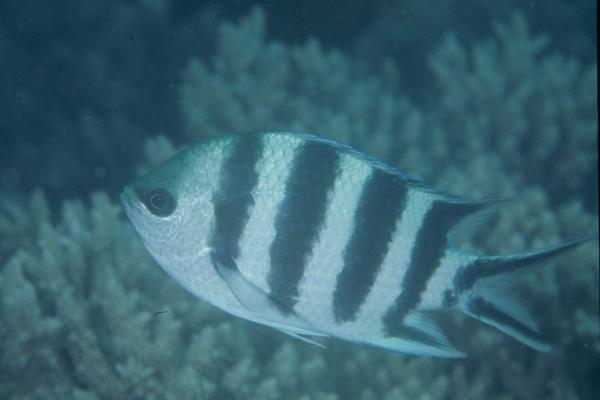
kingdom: Animalia
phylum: Chordata
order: Perciformes
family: Pomacentridae
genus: Abudefduf
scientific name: Abudefduf sexfasciatus
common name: Scissortail sergeant
